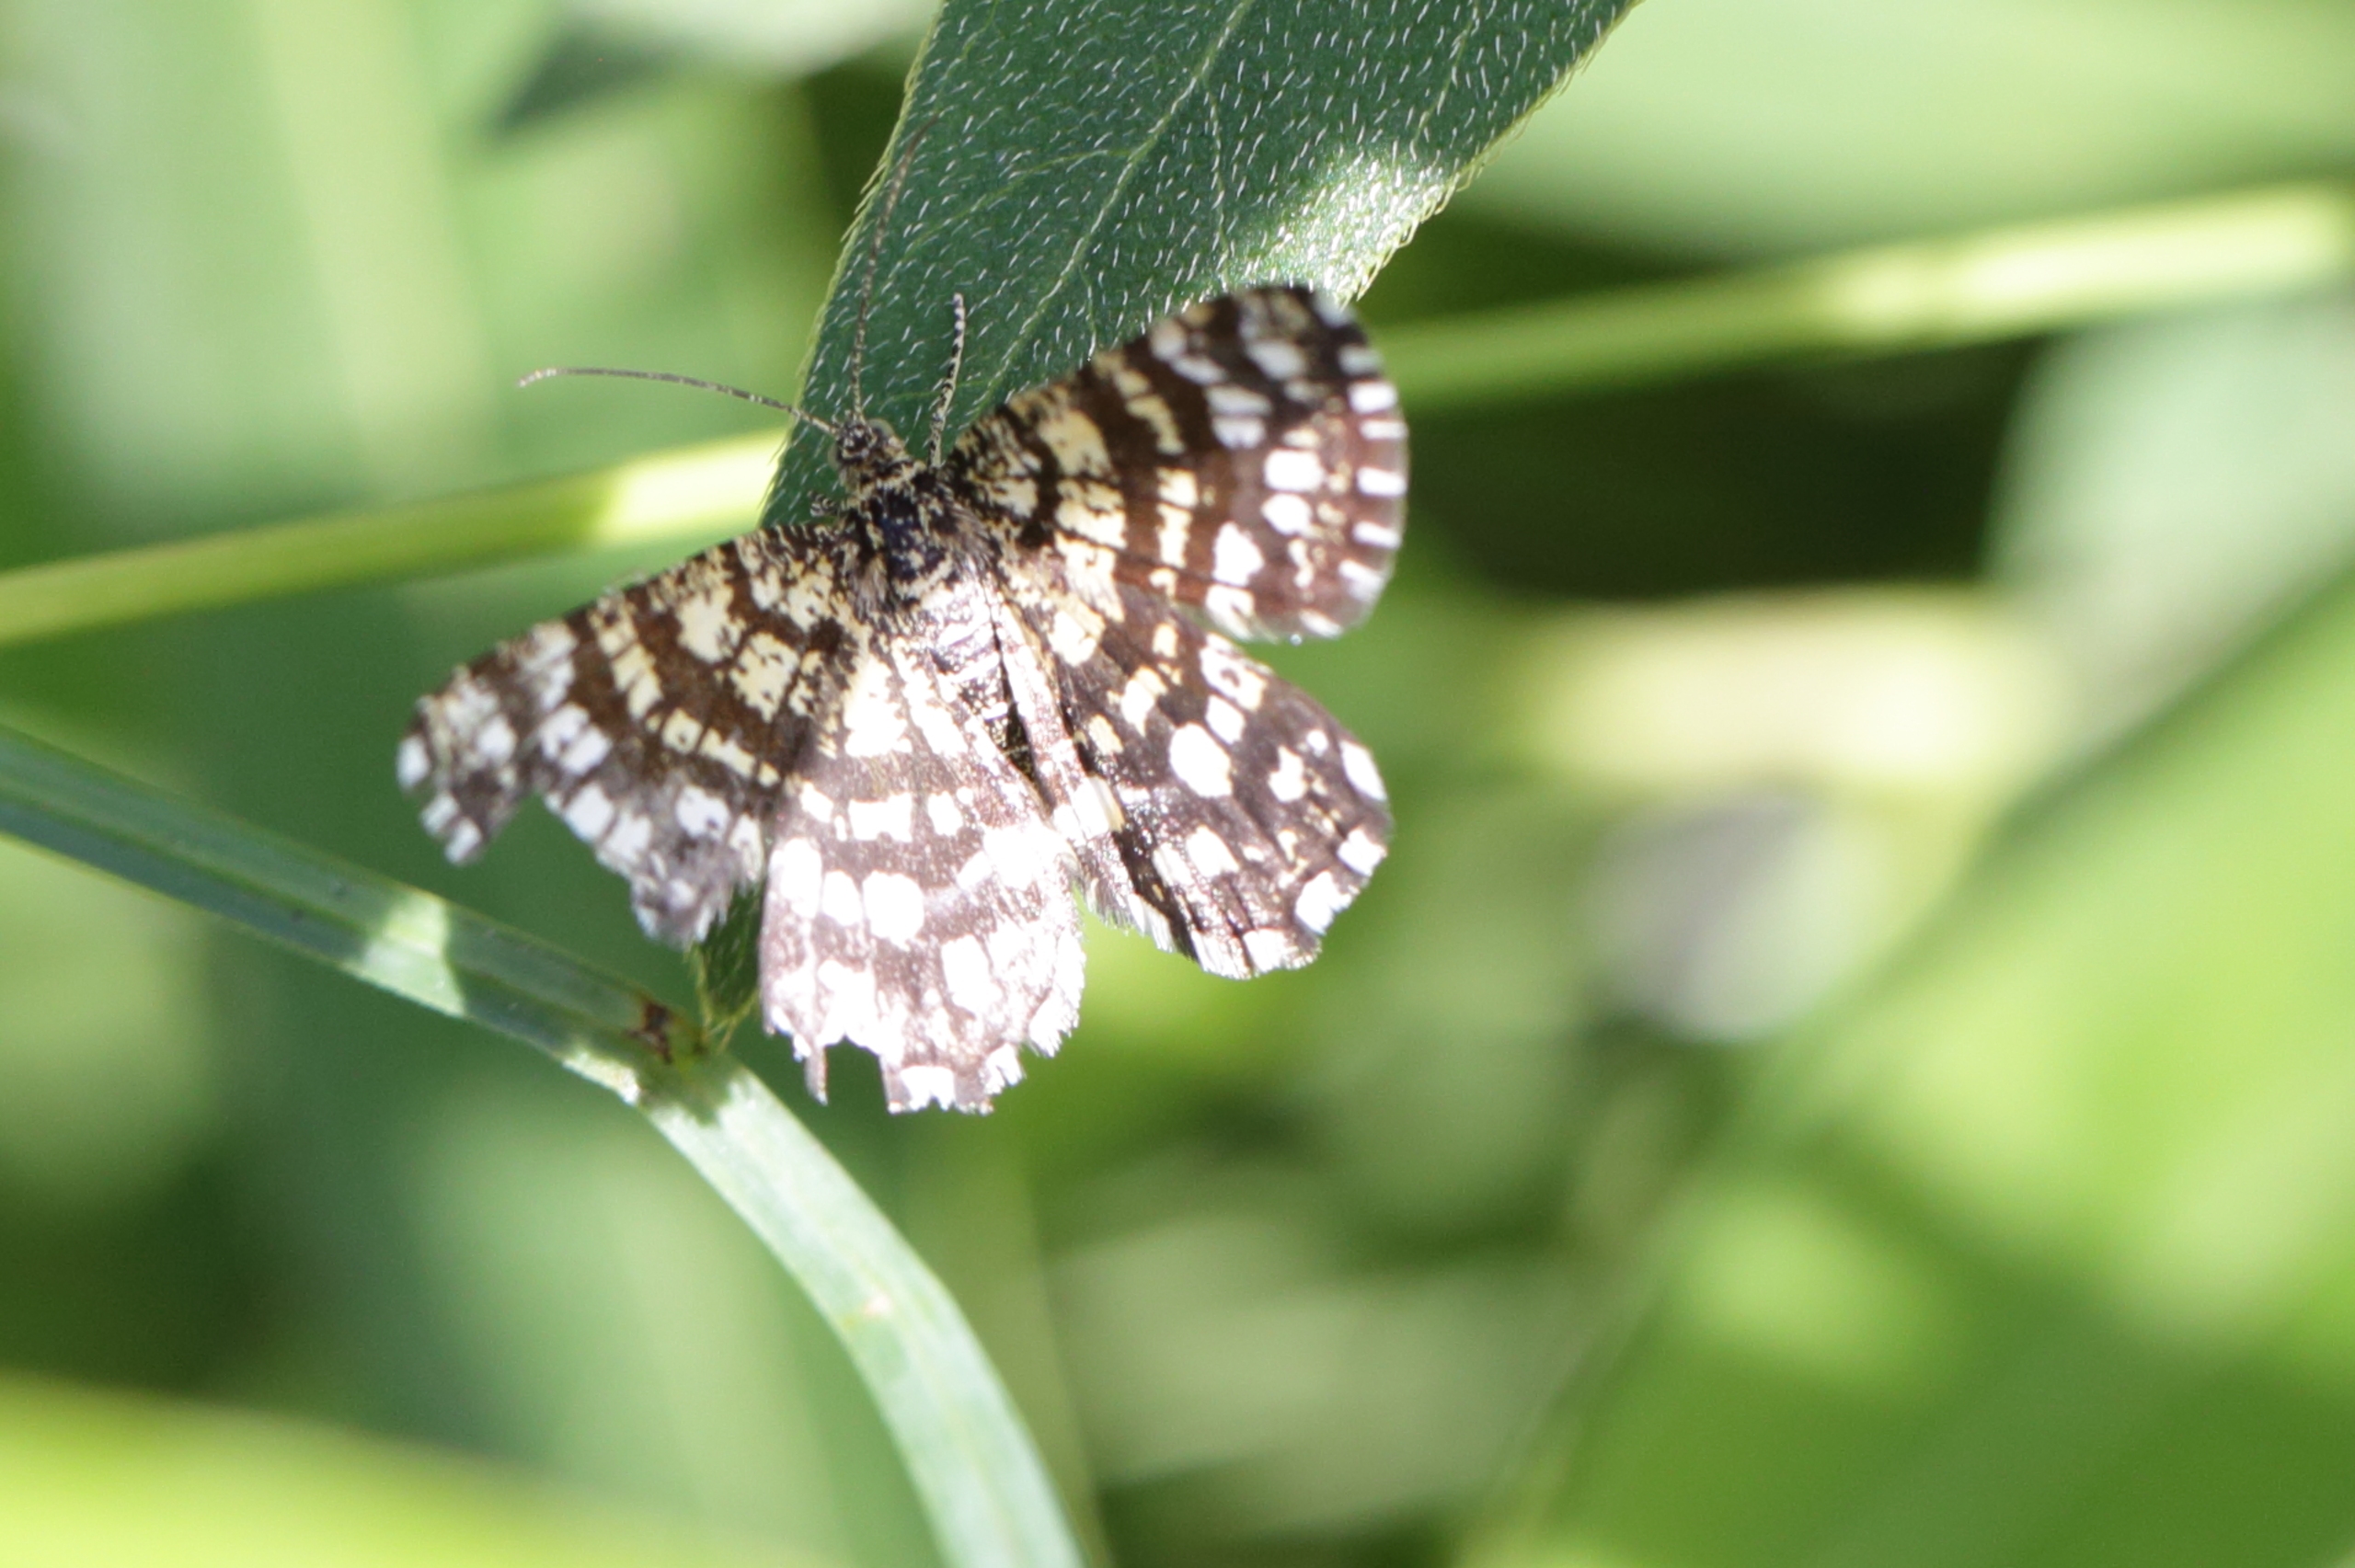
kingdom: Animalia
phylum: Arthropoda
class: Insecta
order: Lepidoptera
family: Geometridae
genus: Chiasmia
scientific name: Chiasmia clathrata
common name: Kløvermåler
